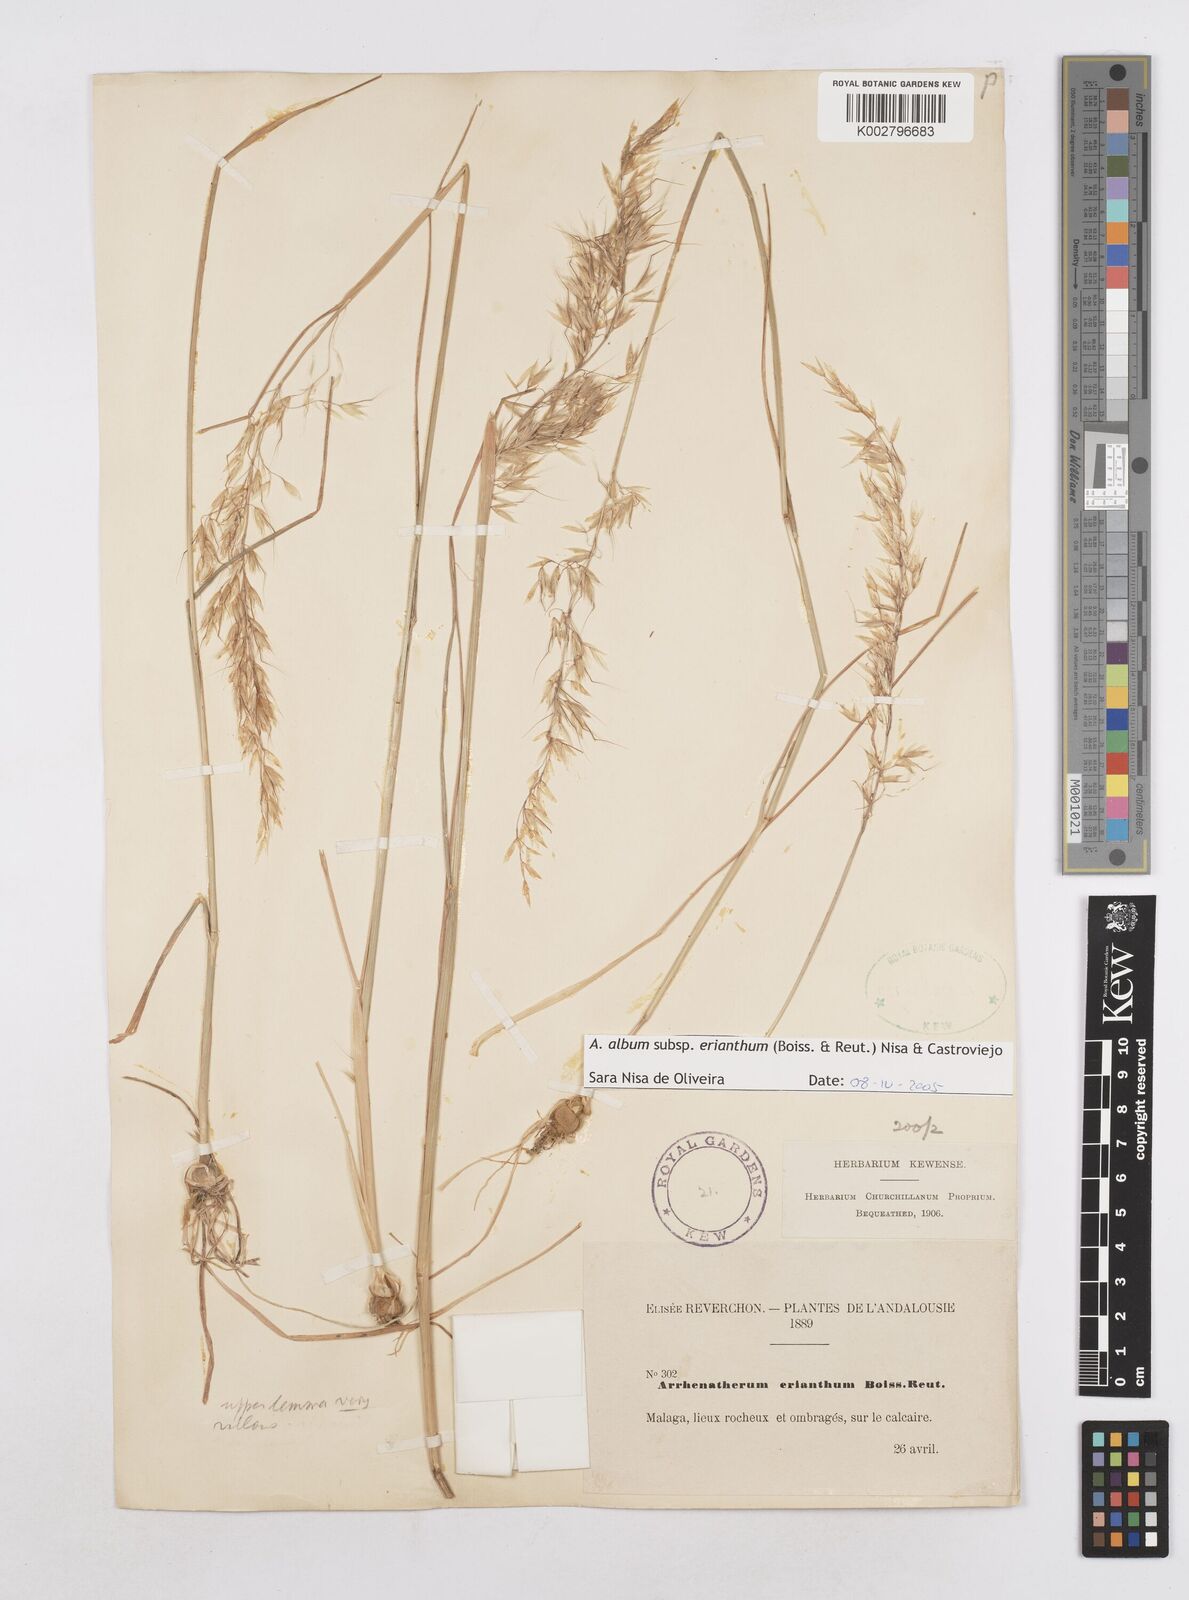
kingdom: Plantae
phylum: Tracheophyta
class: Liliopsida
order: Poales
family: Poaceae
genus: Arrhenatherum
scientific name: Arrhenatherum album
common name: Tall oat grass
